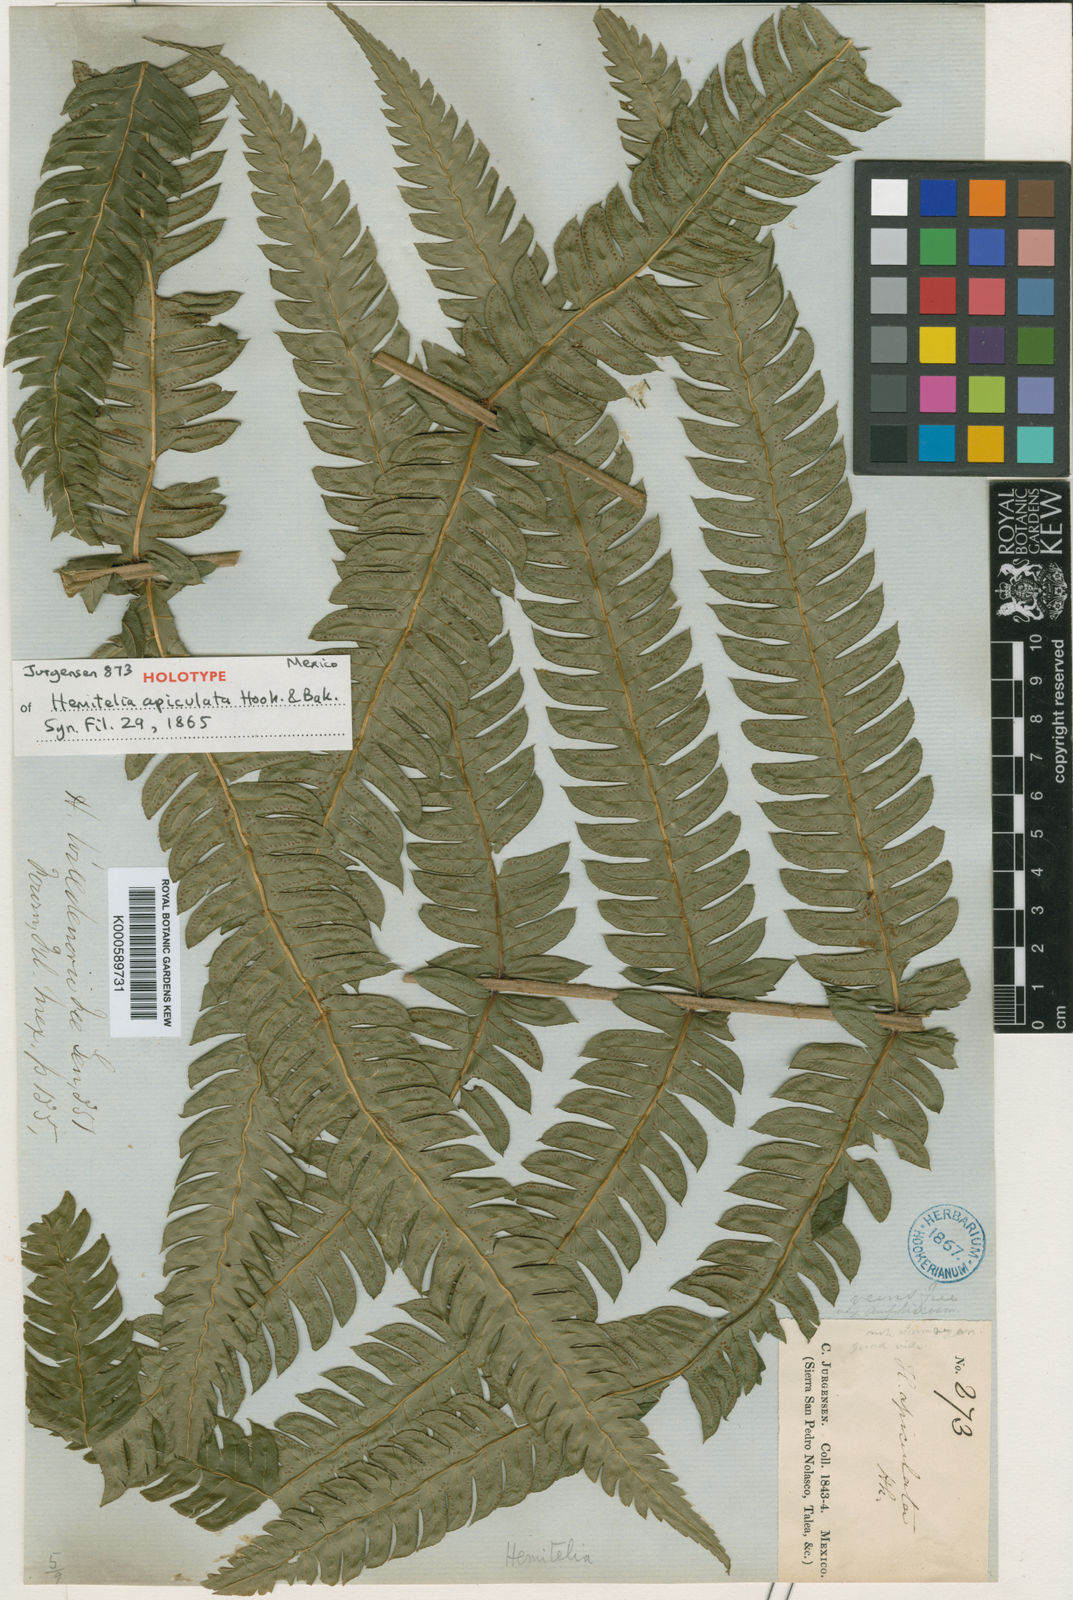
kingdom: Plantae
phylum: Tracheophyta
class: Polypodiopsida
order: Cyatheales
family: Cyatheaceae
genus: Alsophila
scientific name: Alsophila apiculata
